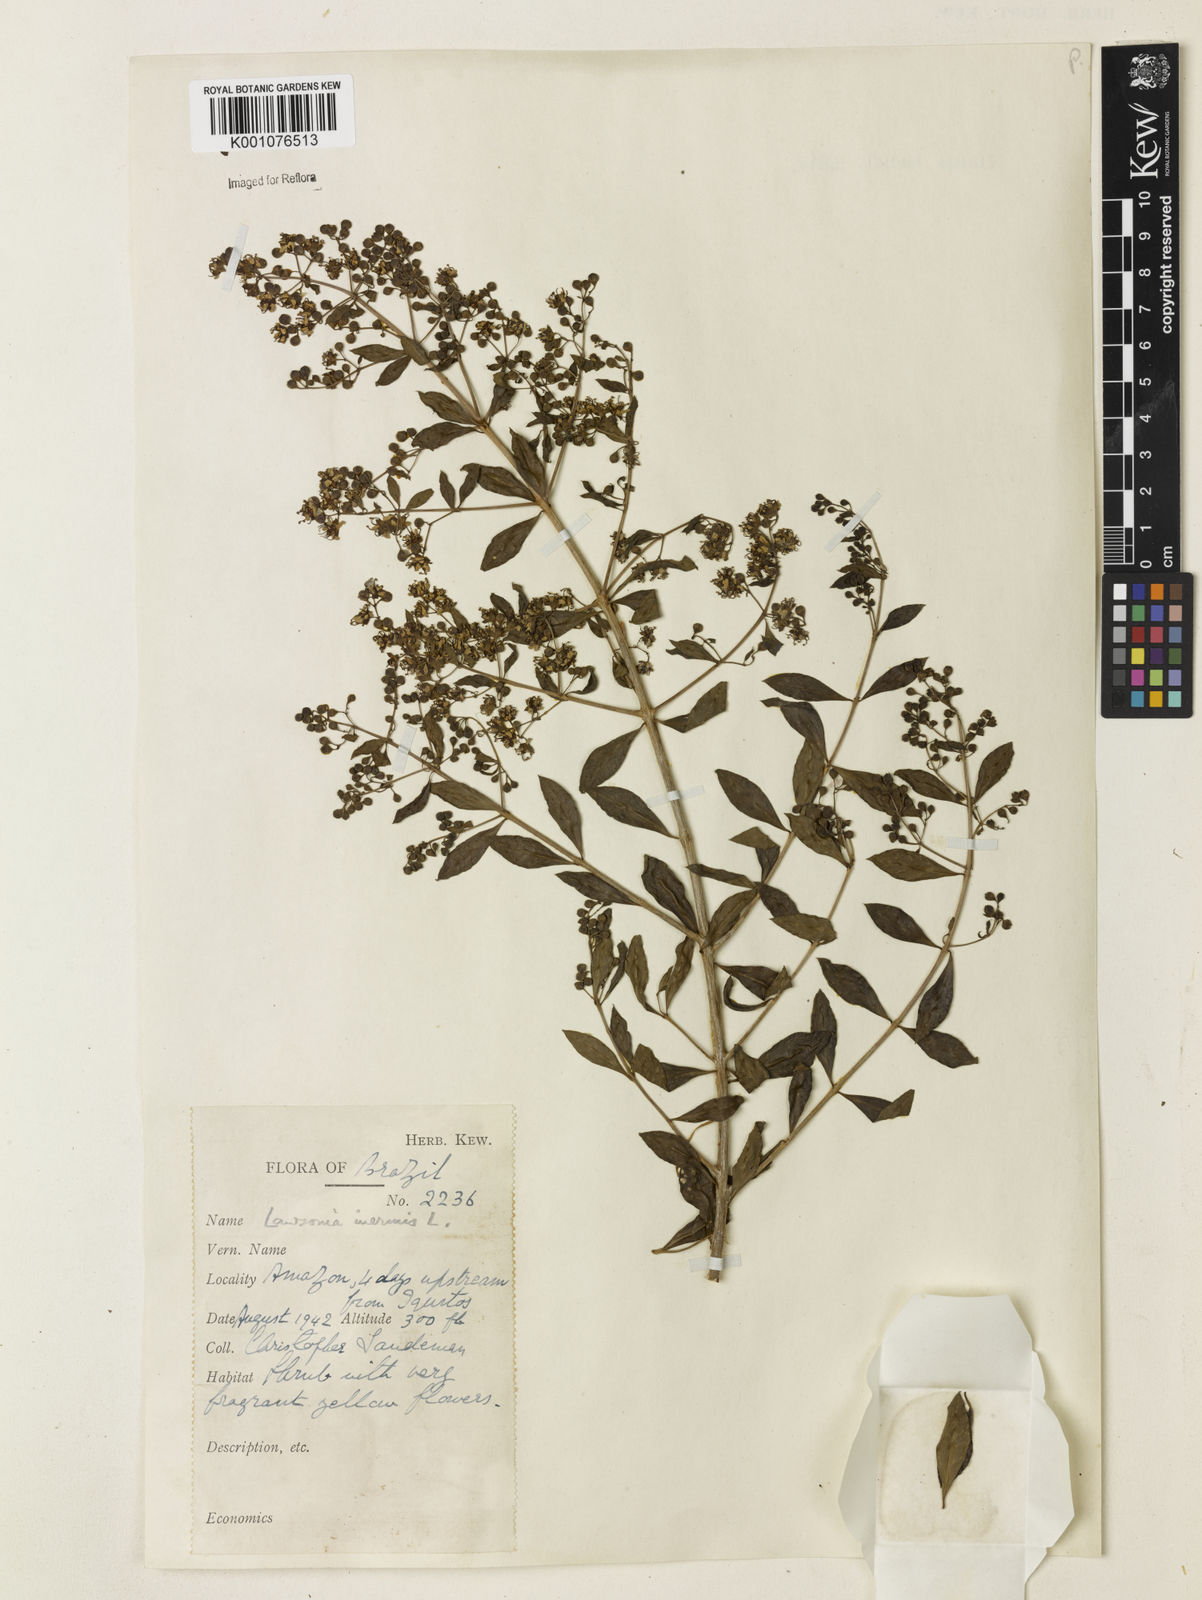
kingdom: Plantae
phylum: Tracheophyta
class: Magnoliopsida
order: Myrtales
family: Lythraceae
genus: Lawsonia
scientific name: Lawsonia inermis
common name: Henna
